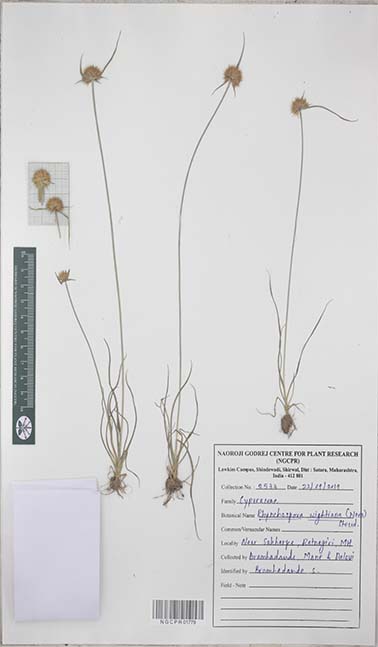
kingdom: Plantae
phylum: Tracheophyta
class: Liliopsida
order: Poales
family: Cyperaceae
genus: Rhynchospora
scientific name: Rhynchospora wightiana
